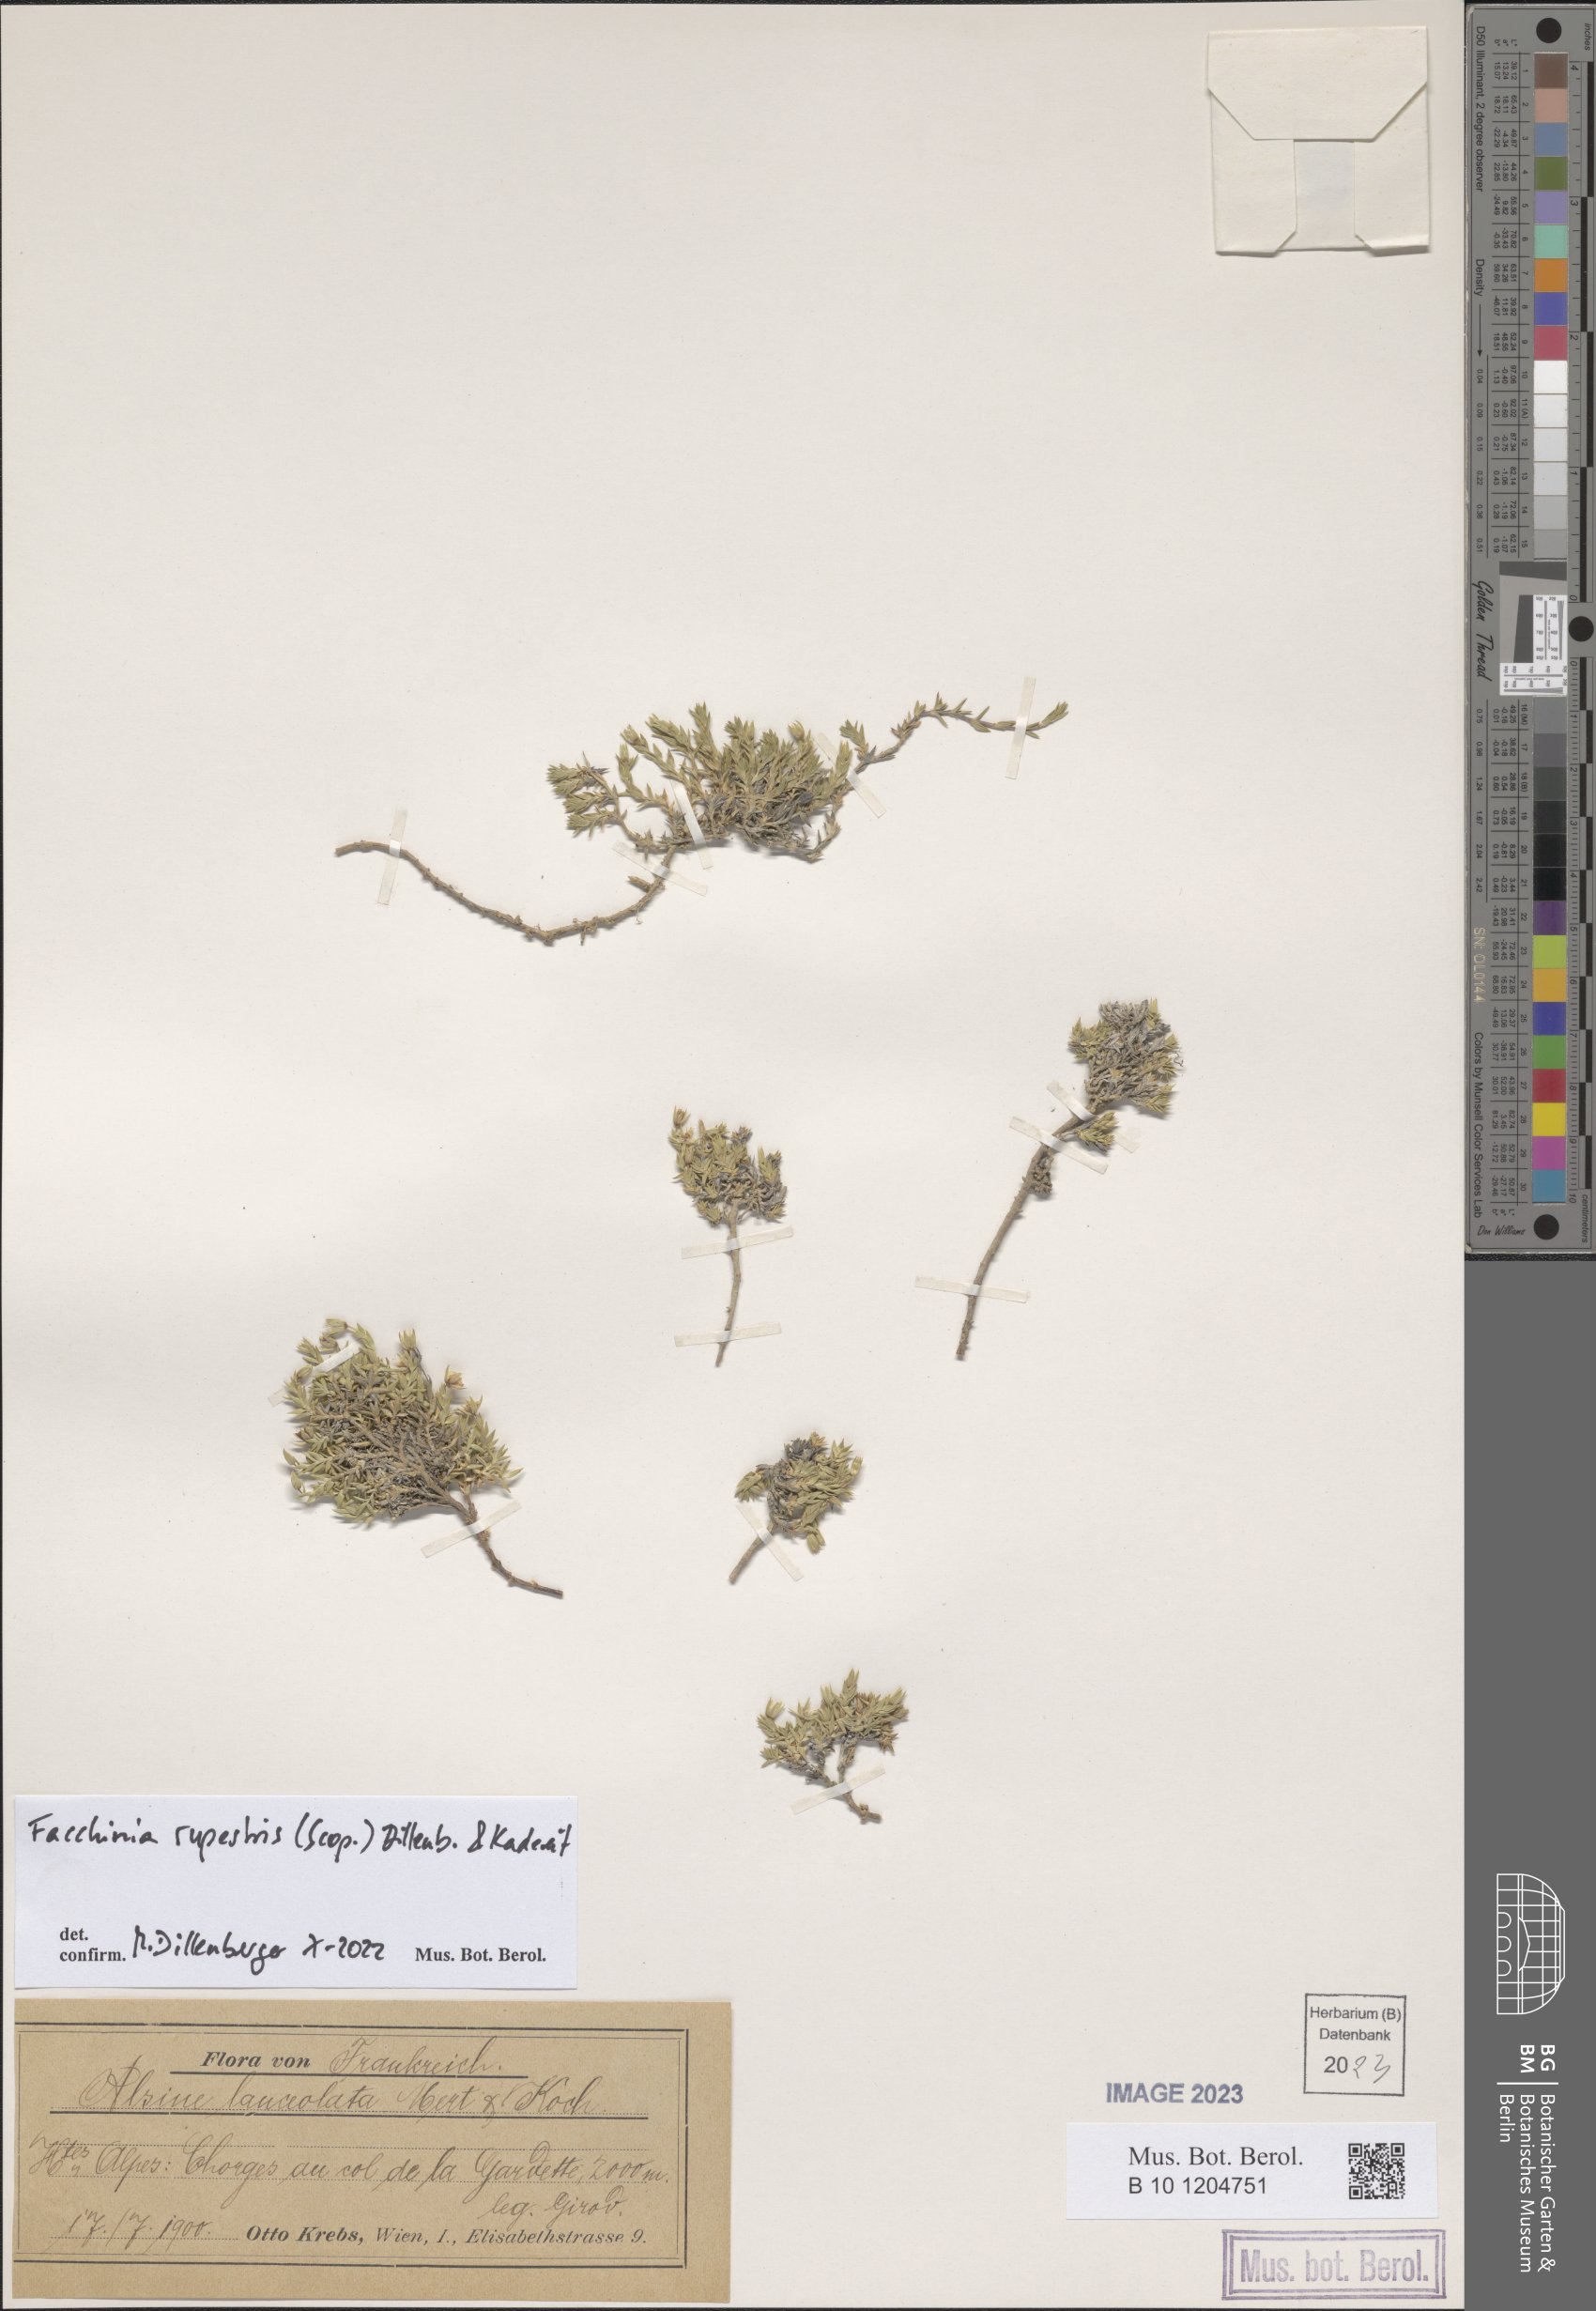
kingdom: Plantae
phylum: Tracheophyta
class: Magnoliopsida
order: Caryophyllales
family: Caryophyllaceae
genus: Facchinia
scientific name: Facchinia rupestris
